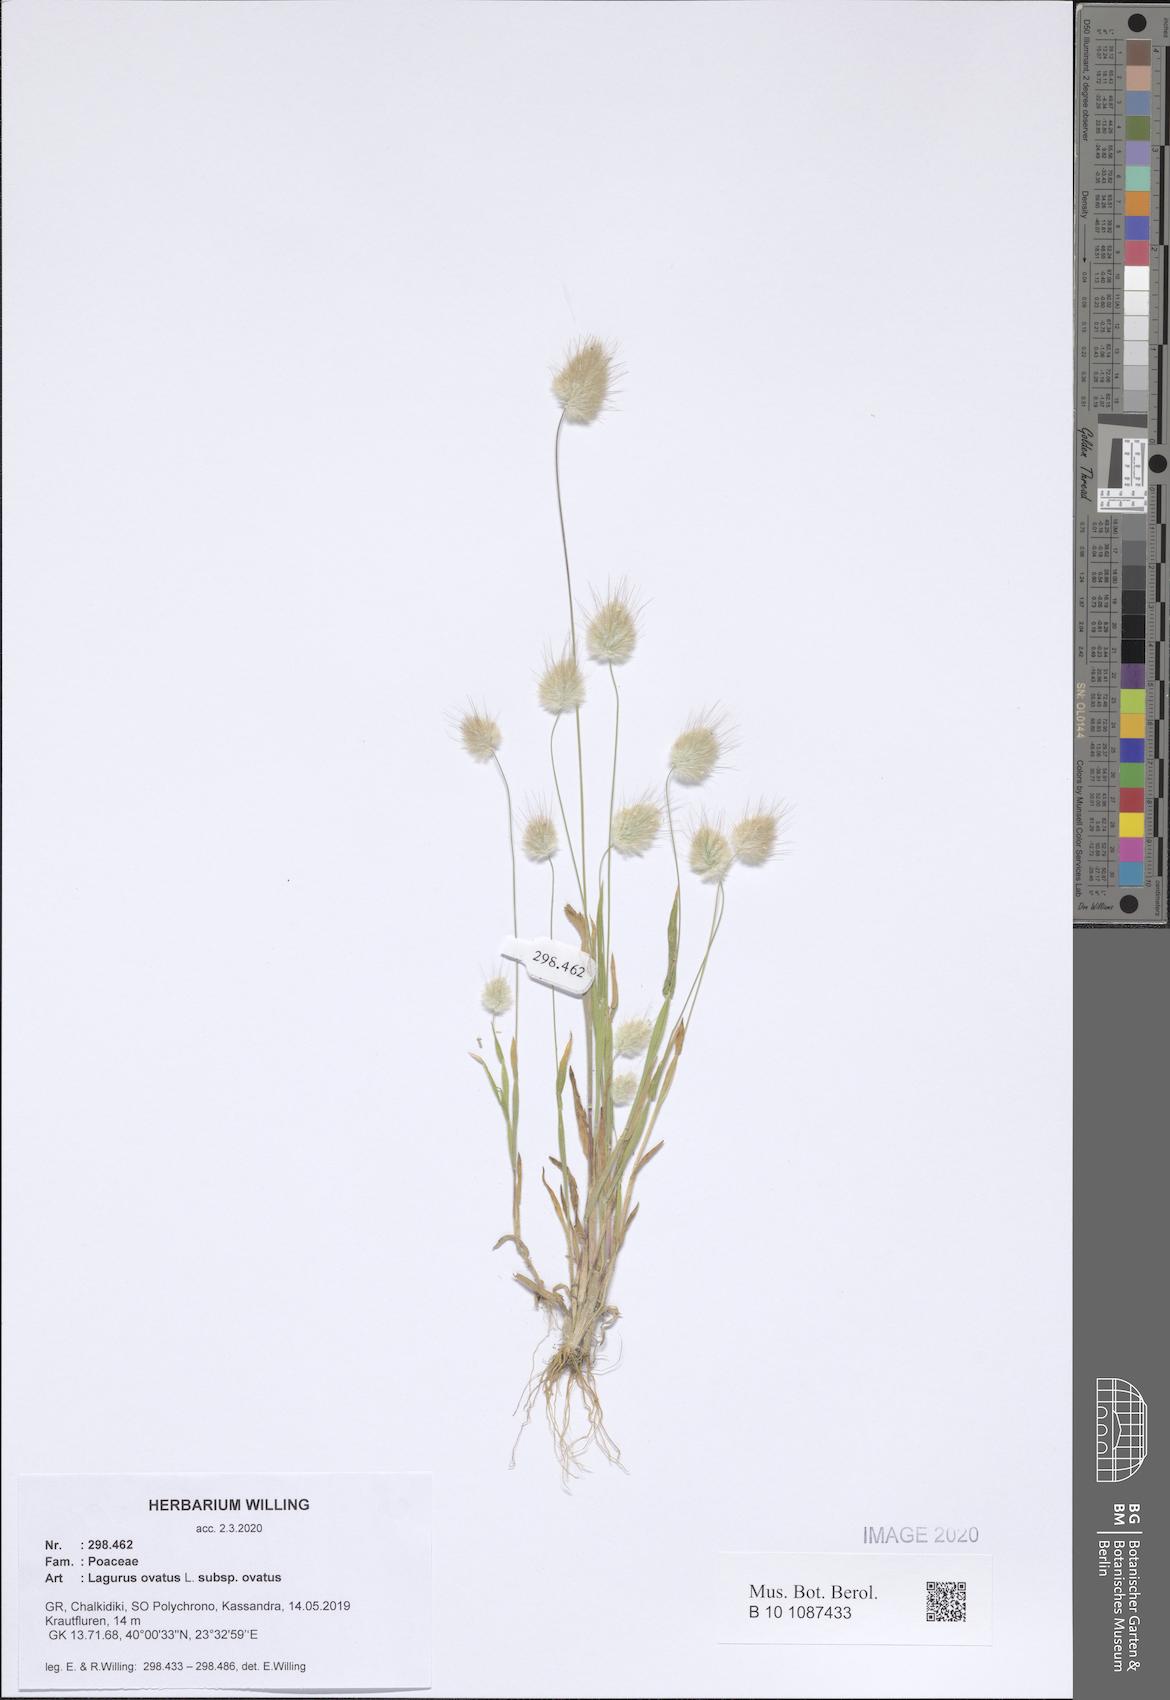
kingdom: Plantae
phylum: Tracheophyta
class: Liliopsida
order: Poales
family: Poaceae
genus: Lagurus
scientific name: Lagurus ovatus
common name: Hare's-tail
